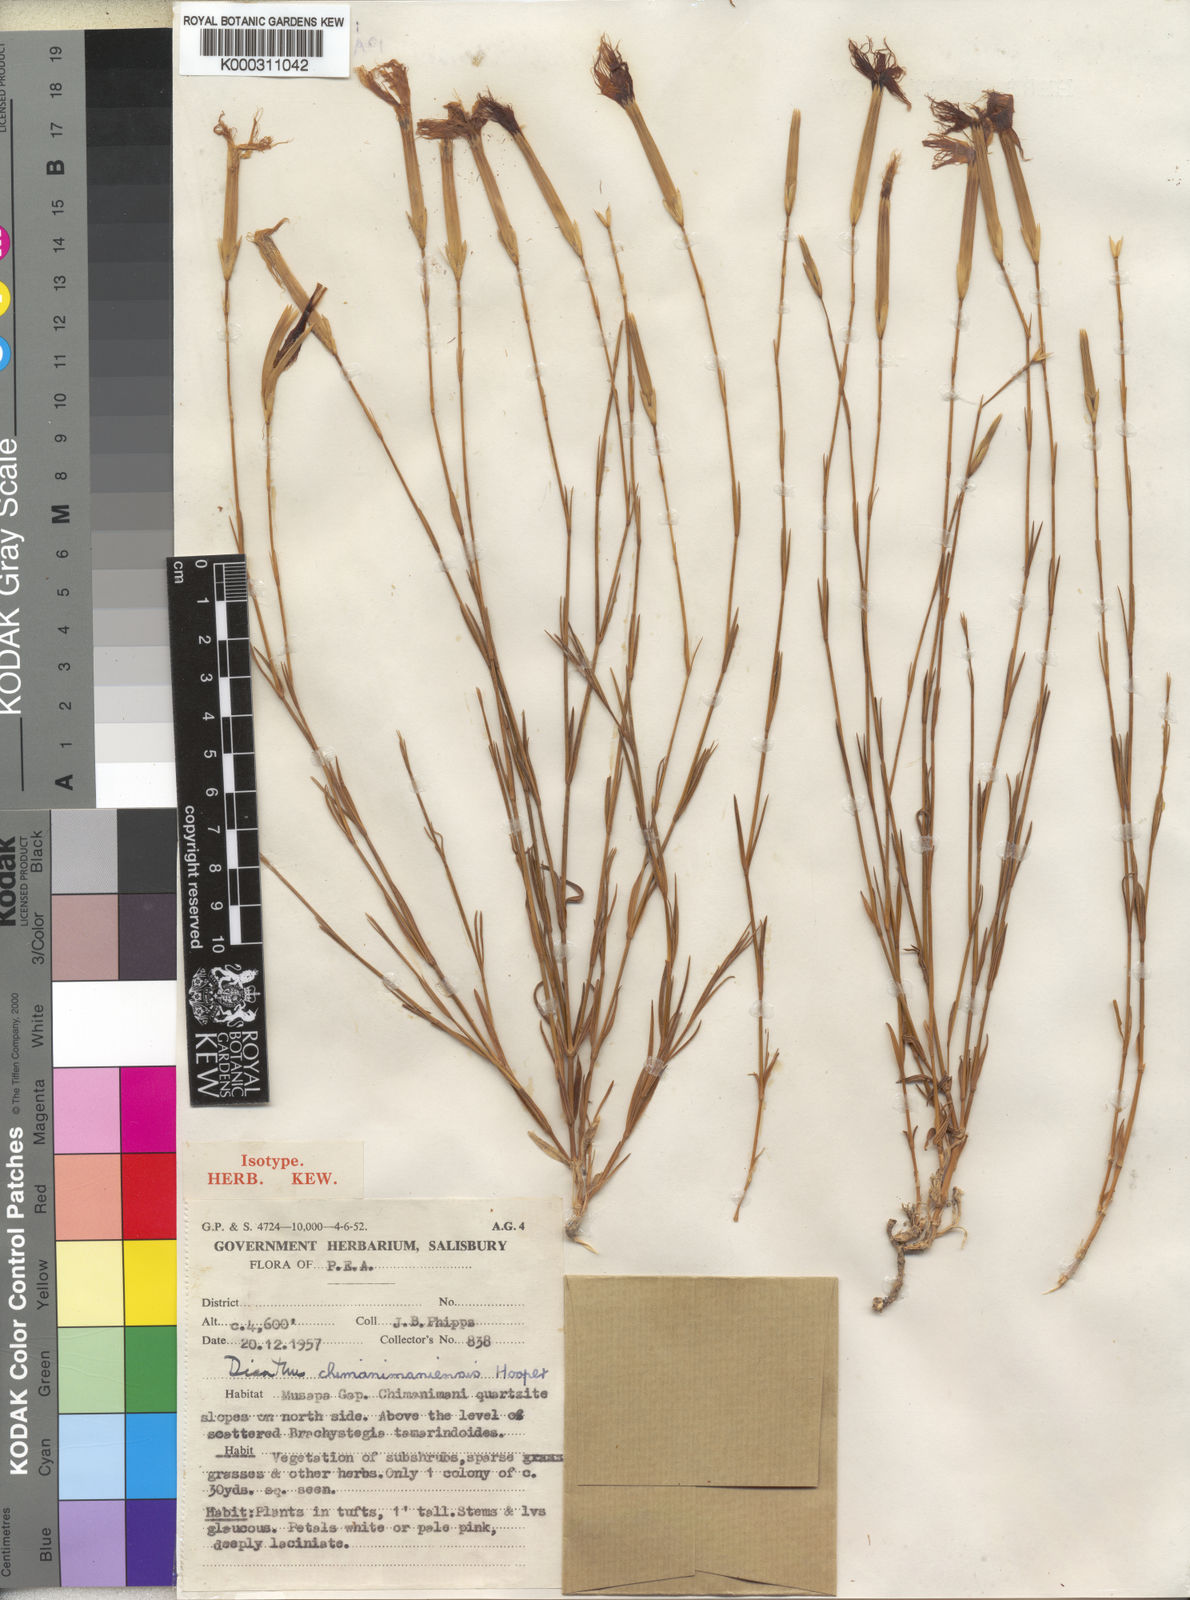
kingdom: Plantae
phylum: Tracheophyta
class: Magnoliopsida
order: Caryophyllales
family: Caryophyllaceae
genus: Dianthus
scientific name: Dianthus chimanimaniensis
